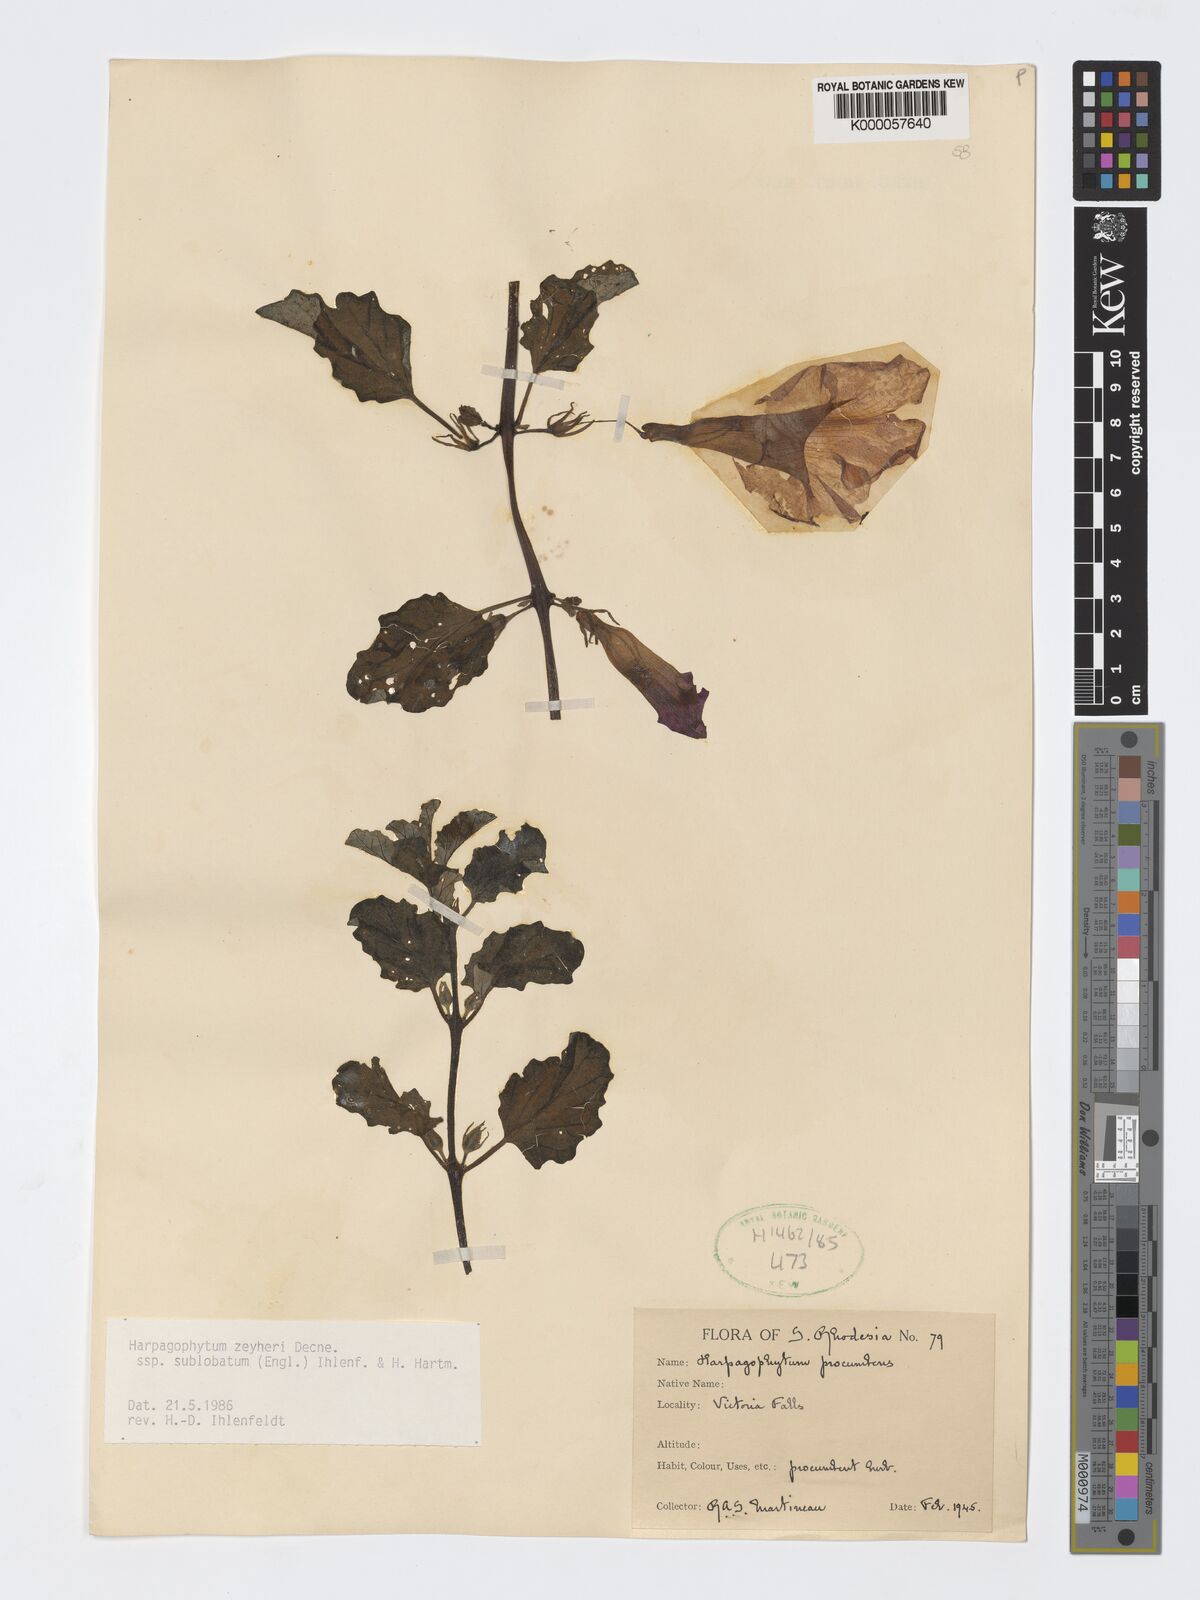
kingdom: Plantae
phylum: Tracheophyta
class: Magnoliopsida
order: Lamiales
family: Pedaliaceae
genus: Harpagophytum
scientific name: Harpagophytum zeyheri
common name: Grappleplant
